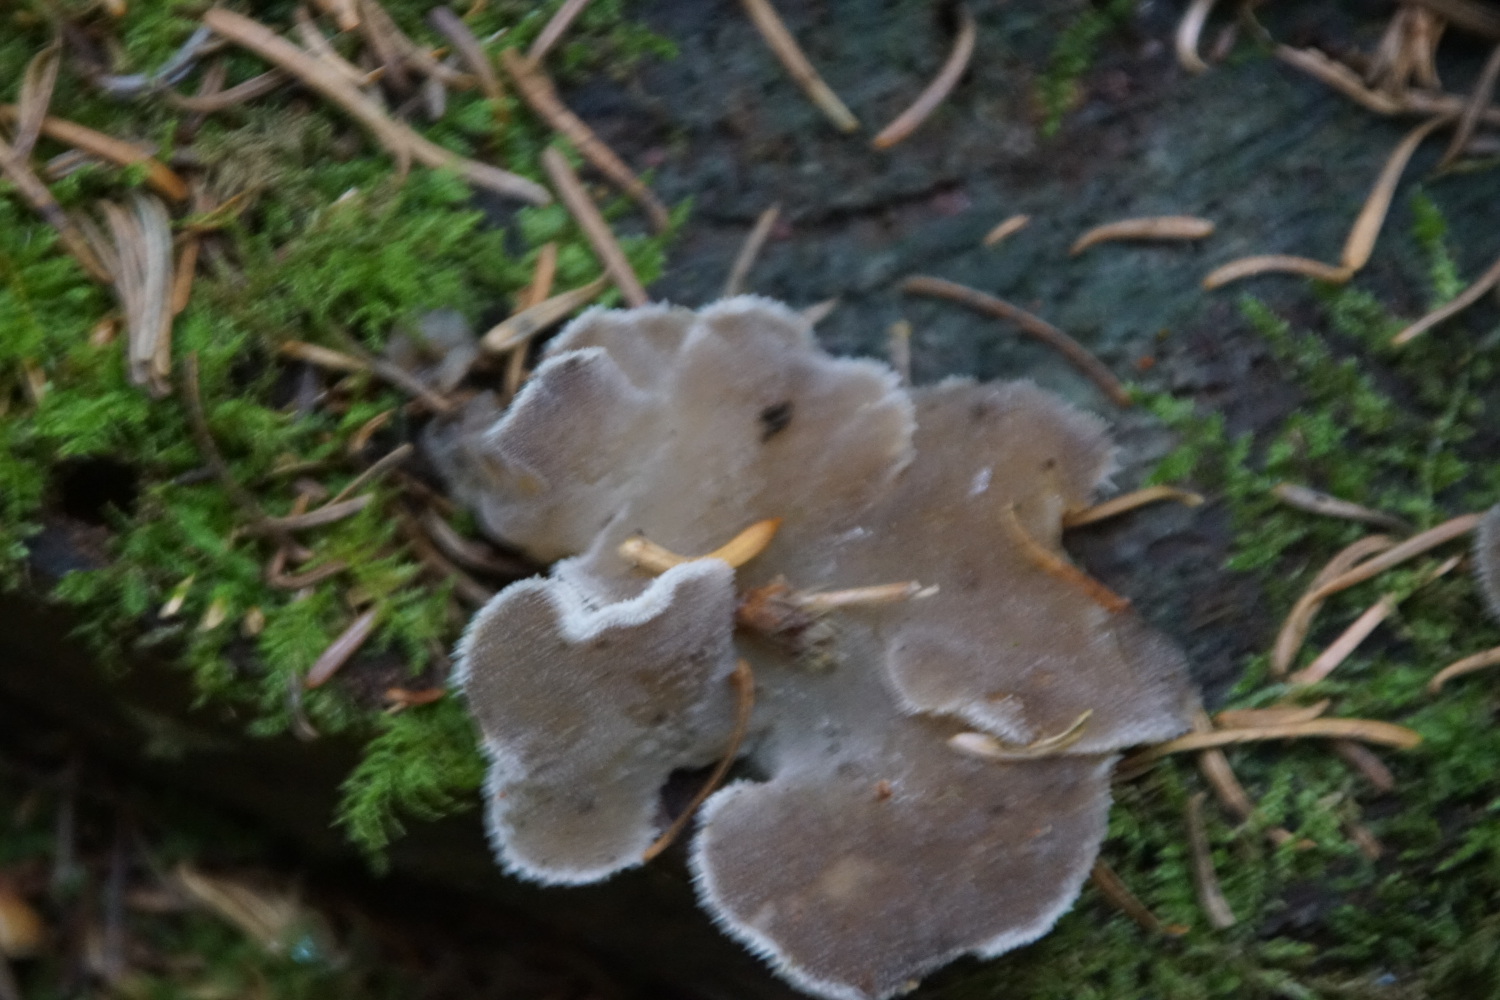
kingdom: Fungi
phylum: Basidiomycota
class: Agaricomycetes
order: Auriculariales
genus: Pseudohydnum
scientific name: Pseudohydnum gelatinosum
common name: bævretand
